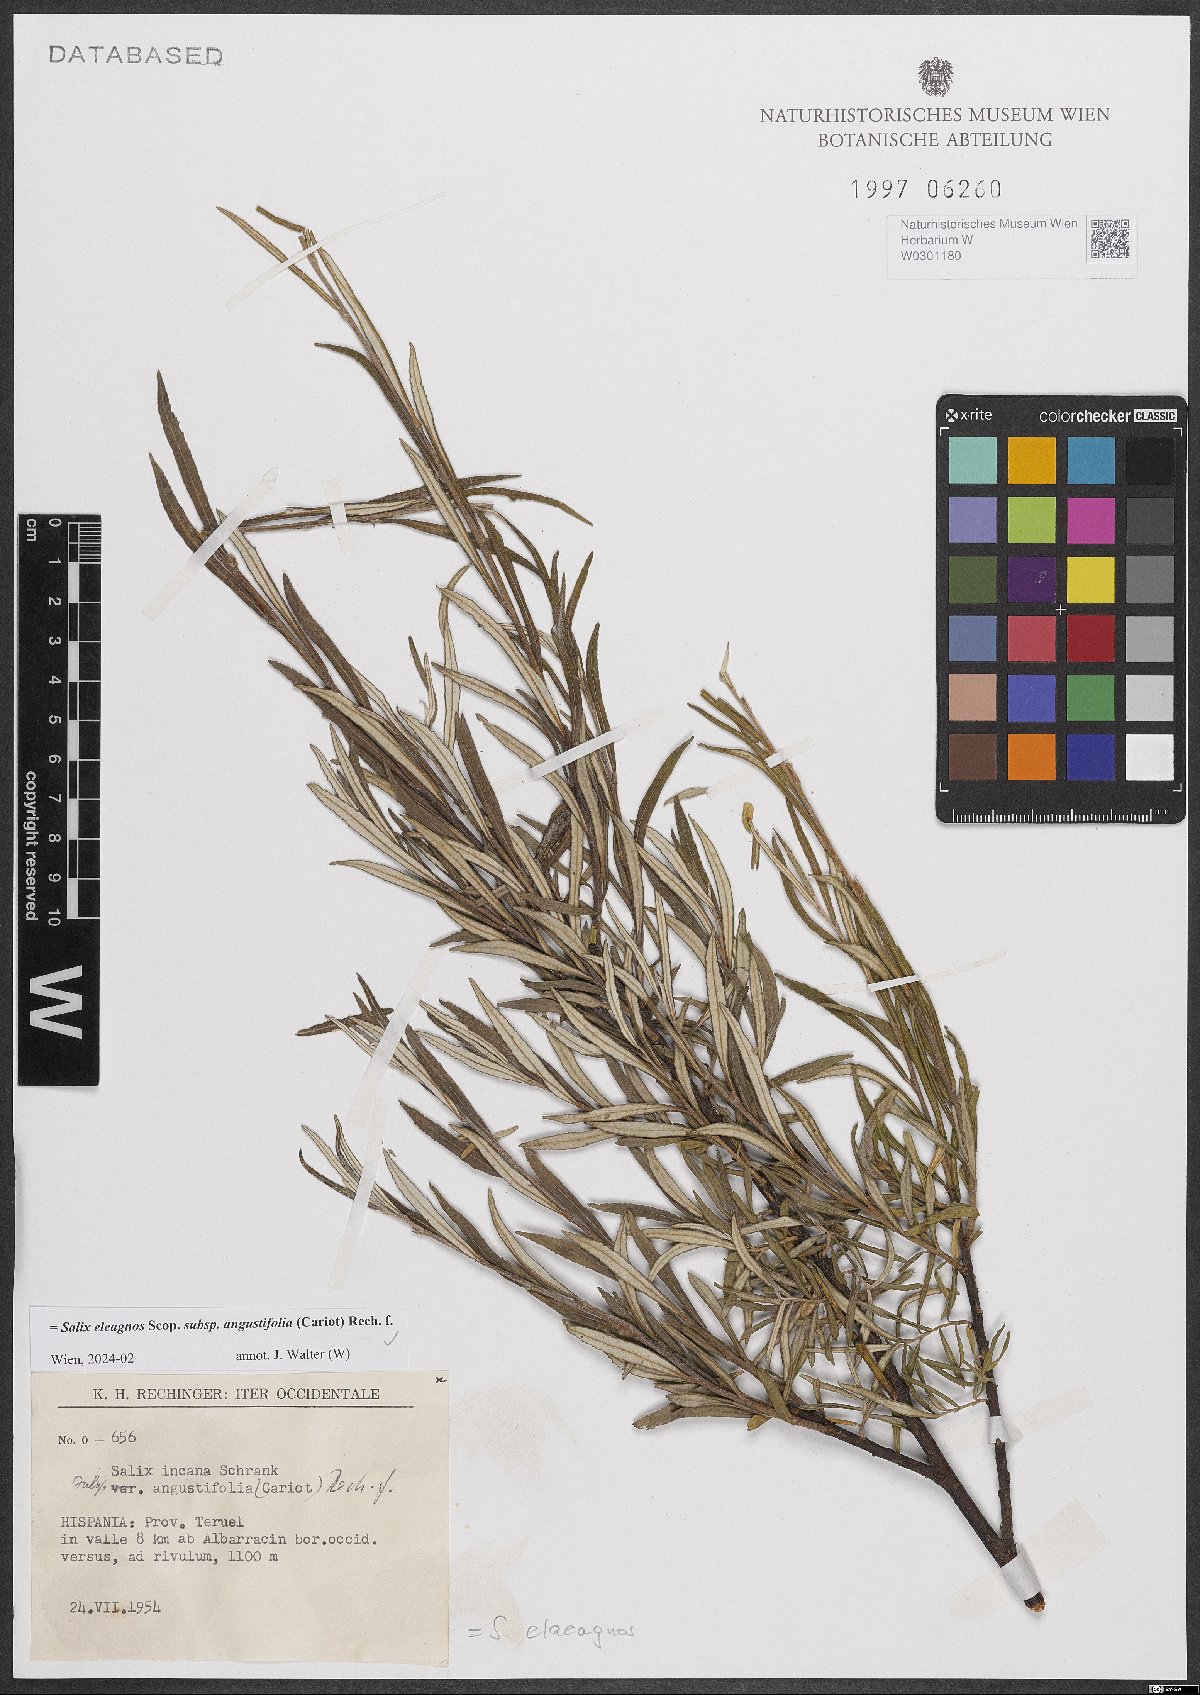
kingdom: Plantae
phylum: Tracheophyta
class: Magnoliopsida
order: Malpighiales
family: Salicaceae
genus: Salix
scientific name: Salix eleagnos
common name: Elaeagnus willow
